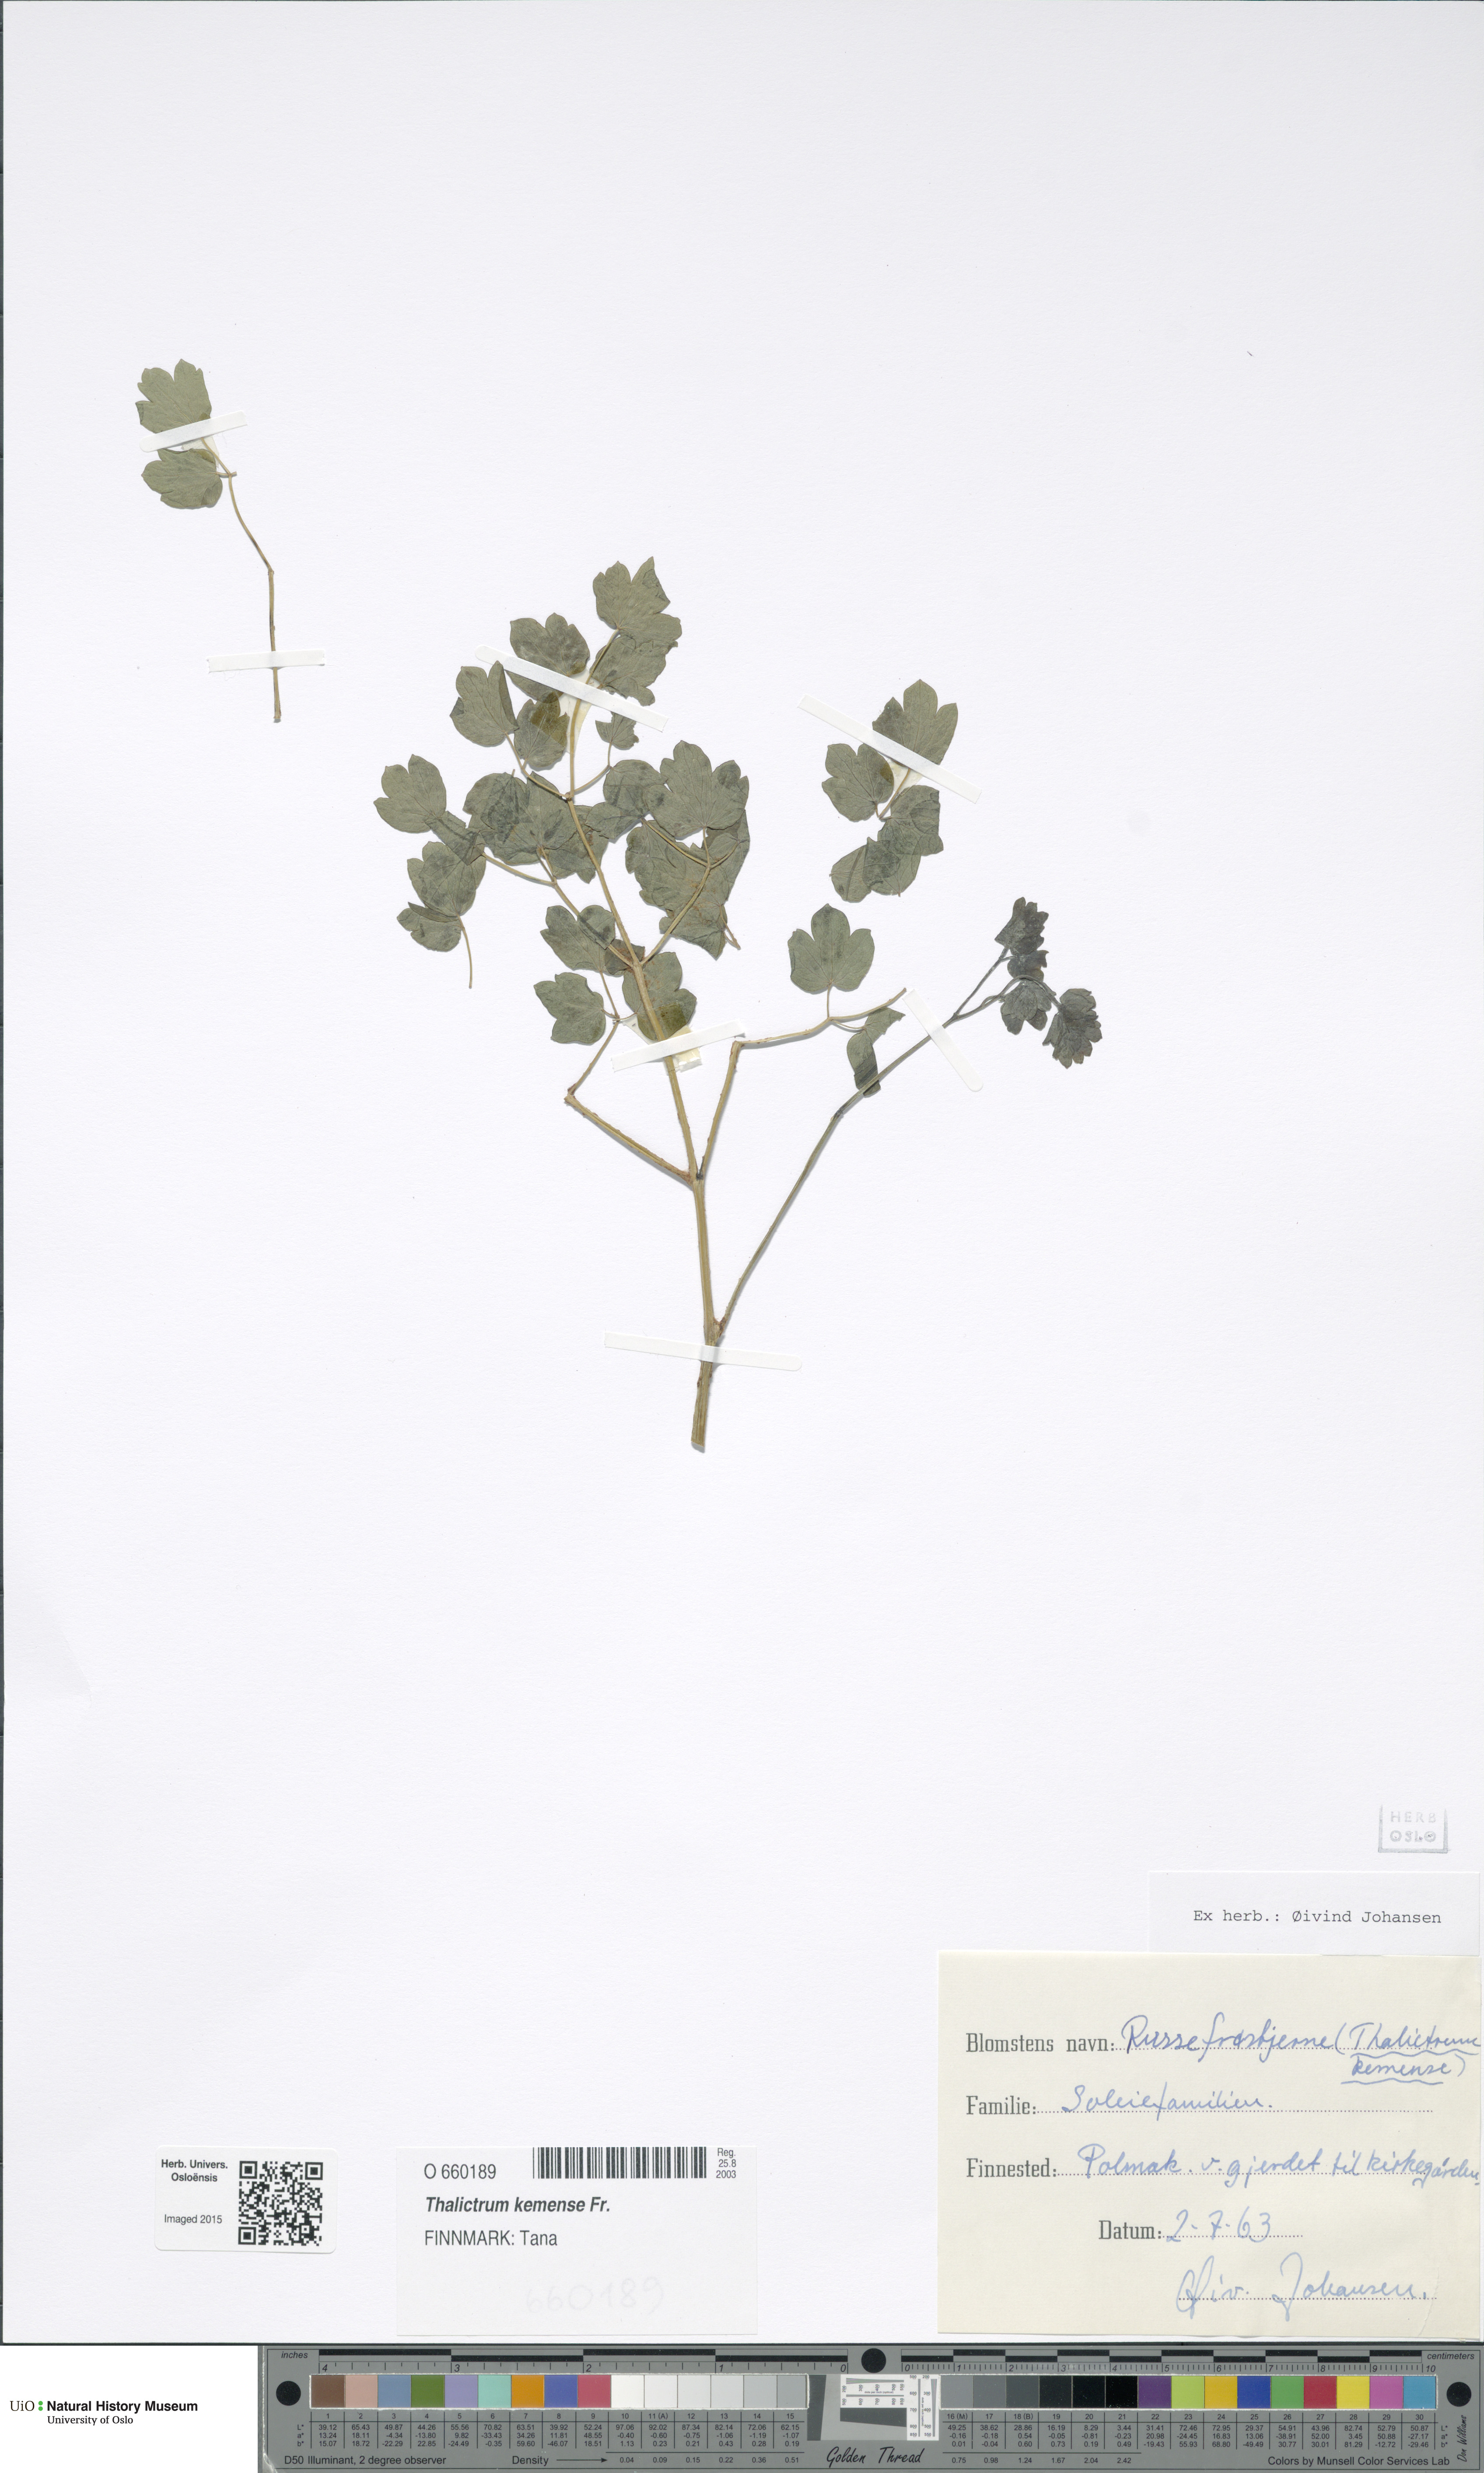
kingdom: Plantae
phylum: Tracheophyta
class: Magnoliopsida
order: Ranunculales
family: Ranunculaceae
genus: Thalictrum
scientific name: Thalictrum minus
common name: Lesser meadow-rue
